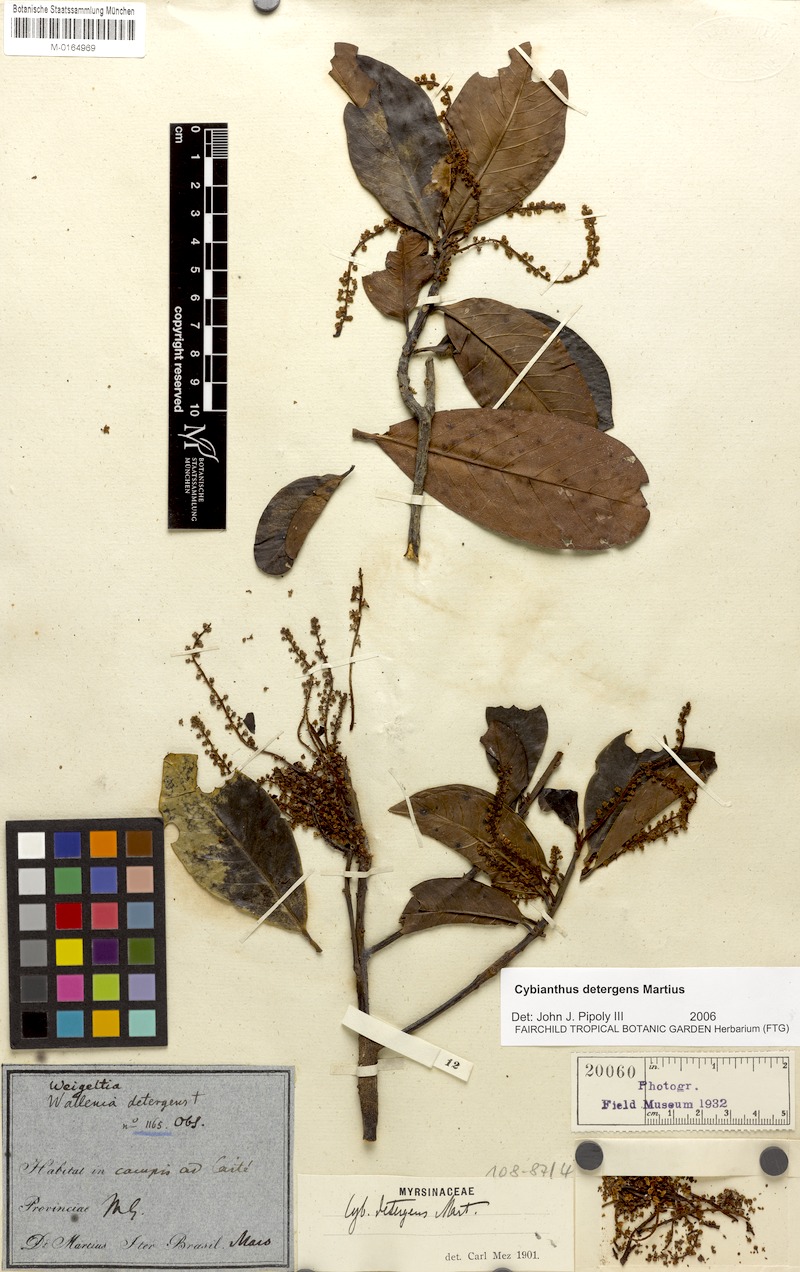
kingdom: Plantae
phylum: Tracheophyta
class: Magnoliopsida
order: Ericales
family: Primulaceae
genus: Cybianthus
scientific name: Cybianthus detergens
